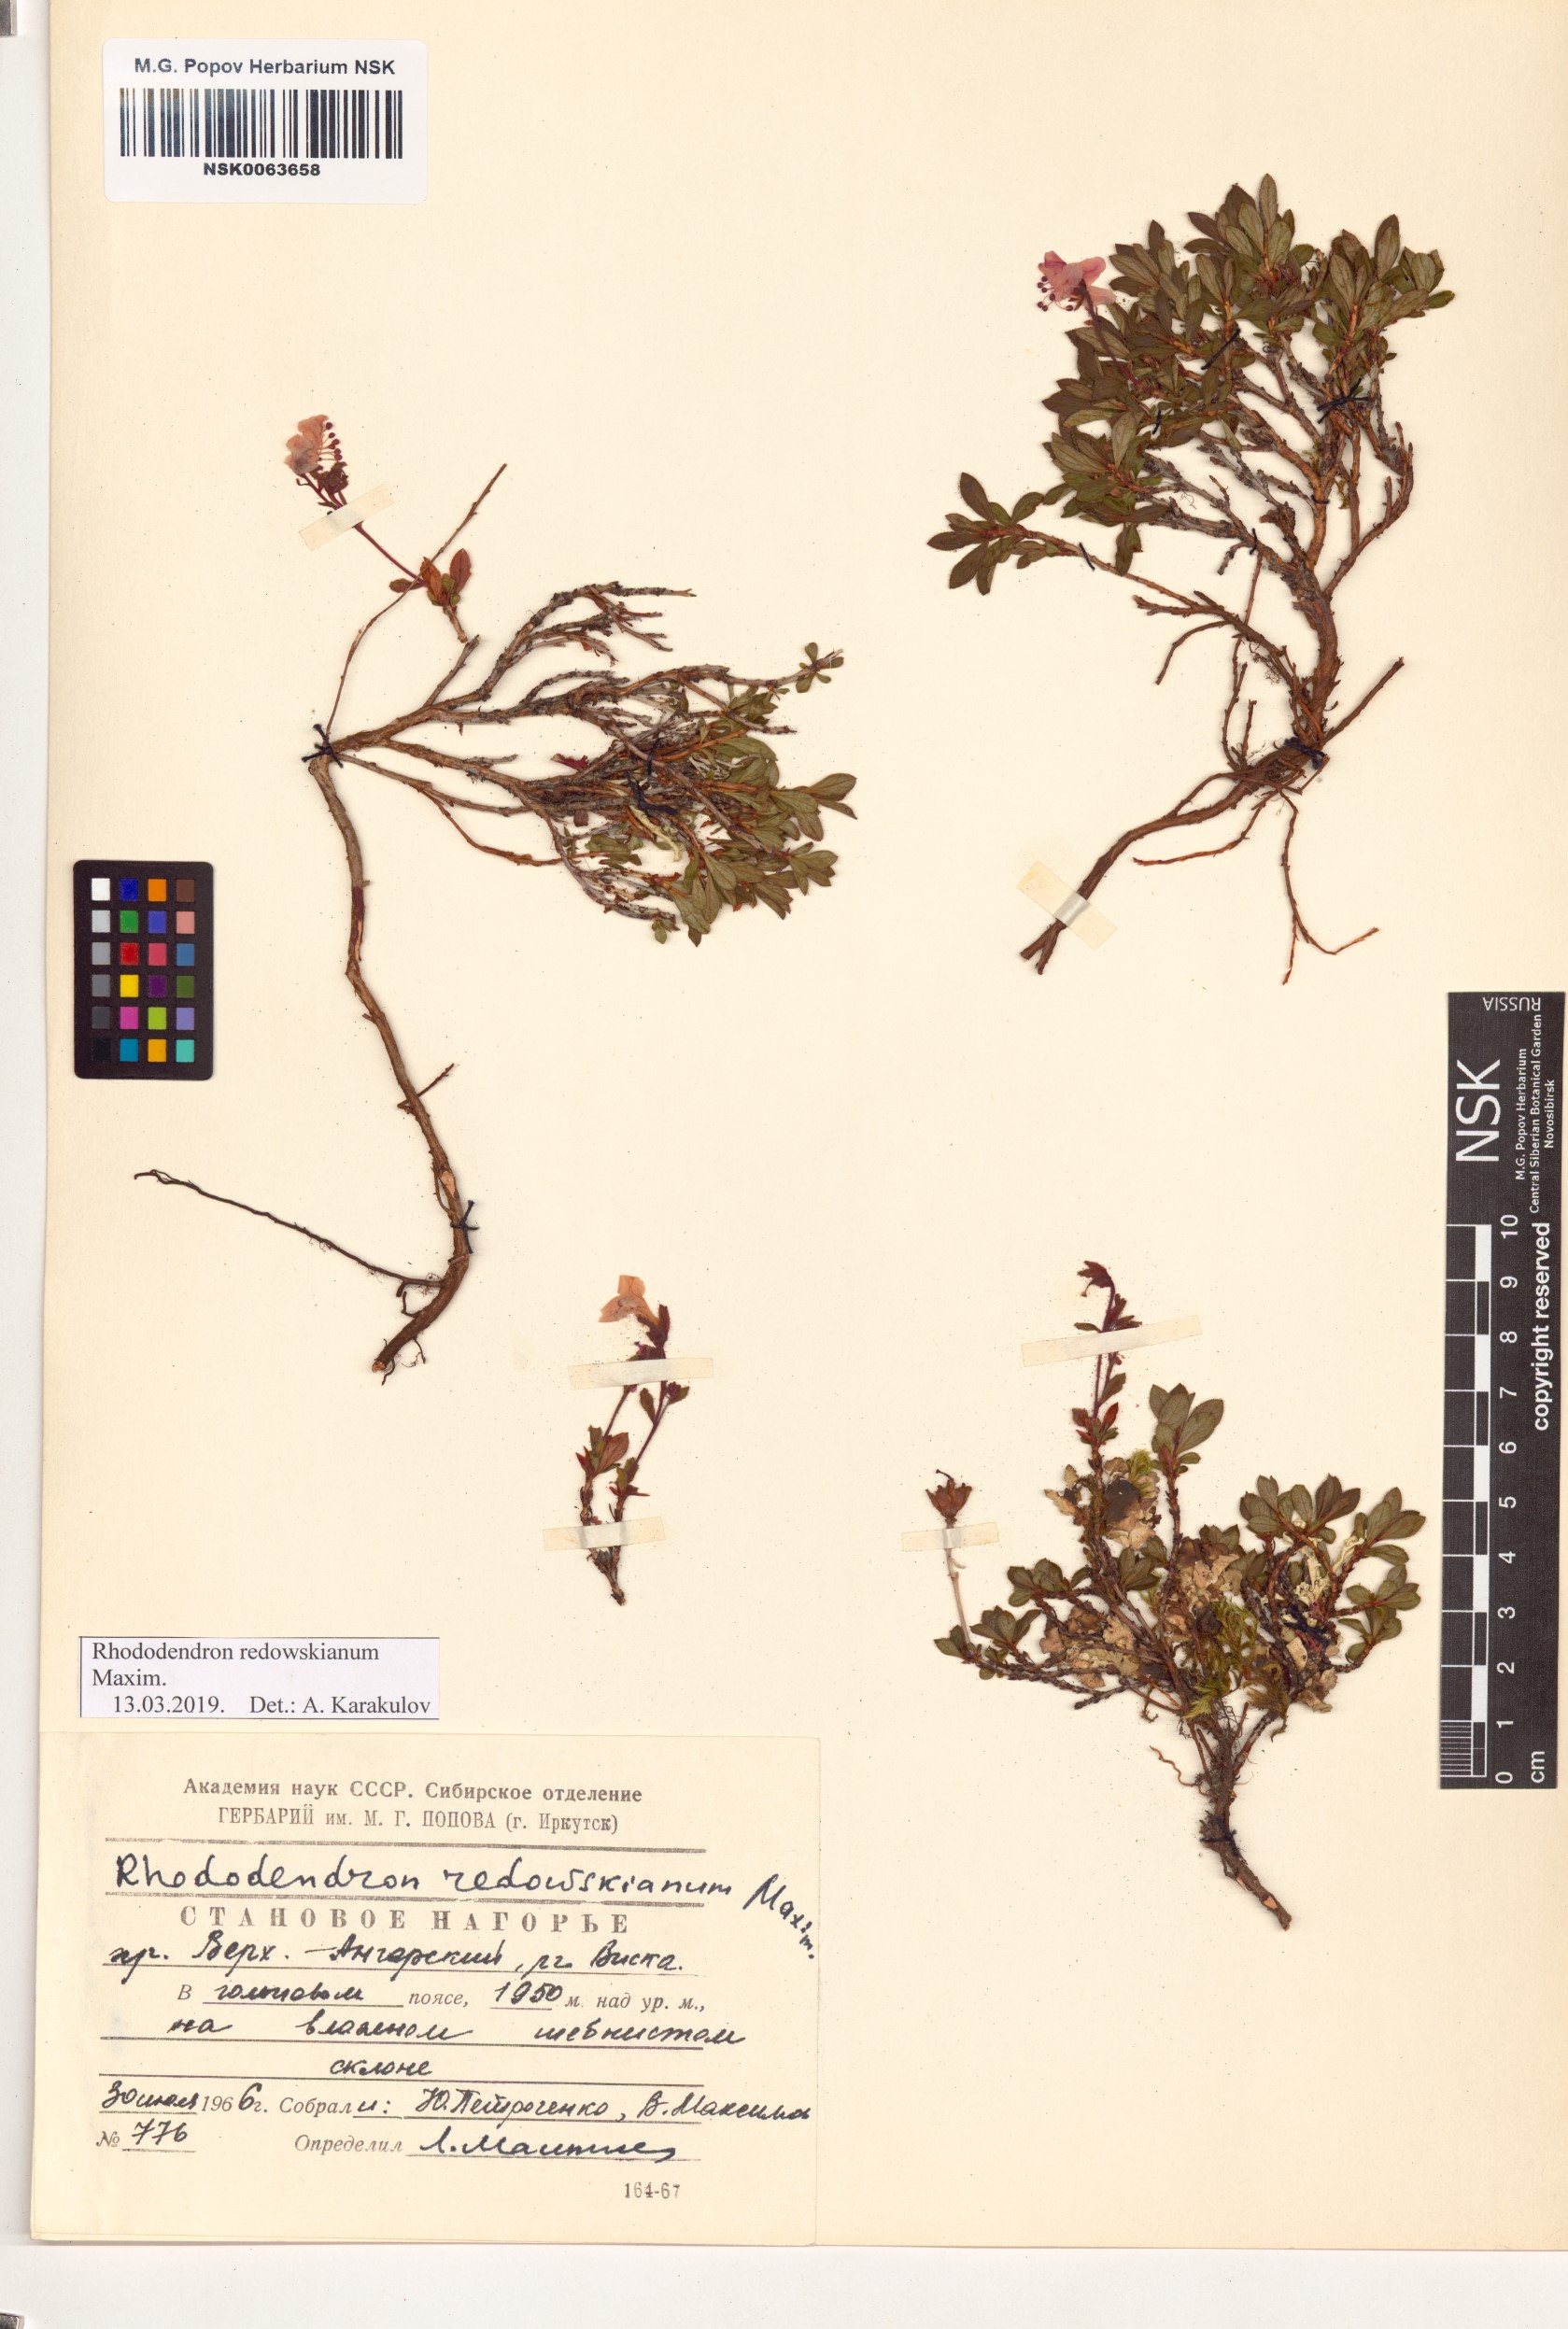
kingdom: Plantae
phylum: Tracheophyta
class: Magnoliopsida
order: Ericales
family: Ericaceae
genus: Rhododendron
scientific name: Rhododendron redowskianum
